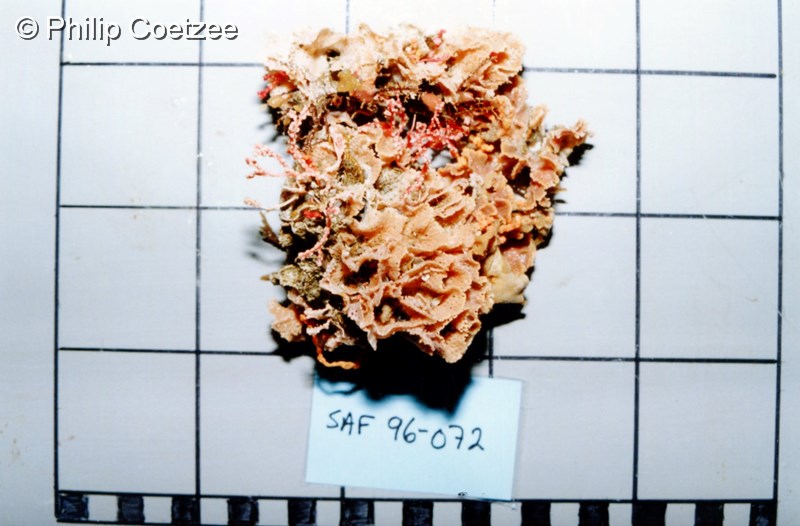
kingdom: Animalia
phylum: Bryozoa
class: Gymnolaemata
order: Cheilostomatida
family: Phidoloporidae
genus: Reteporella
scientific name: Reteporella lata
